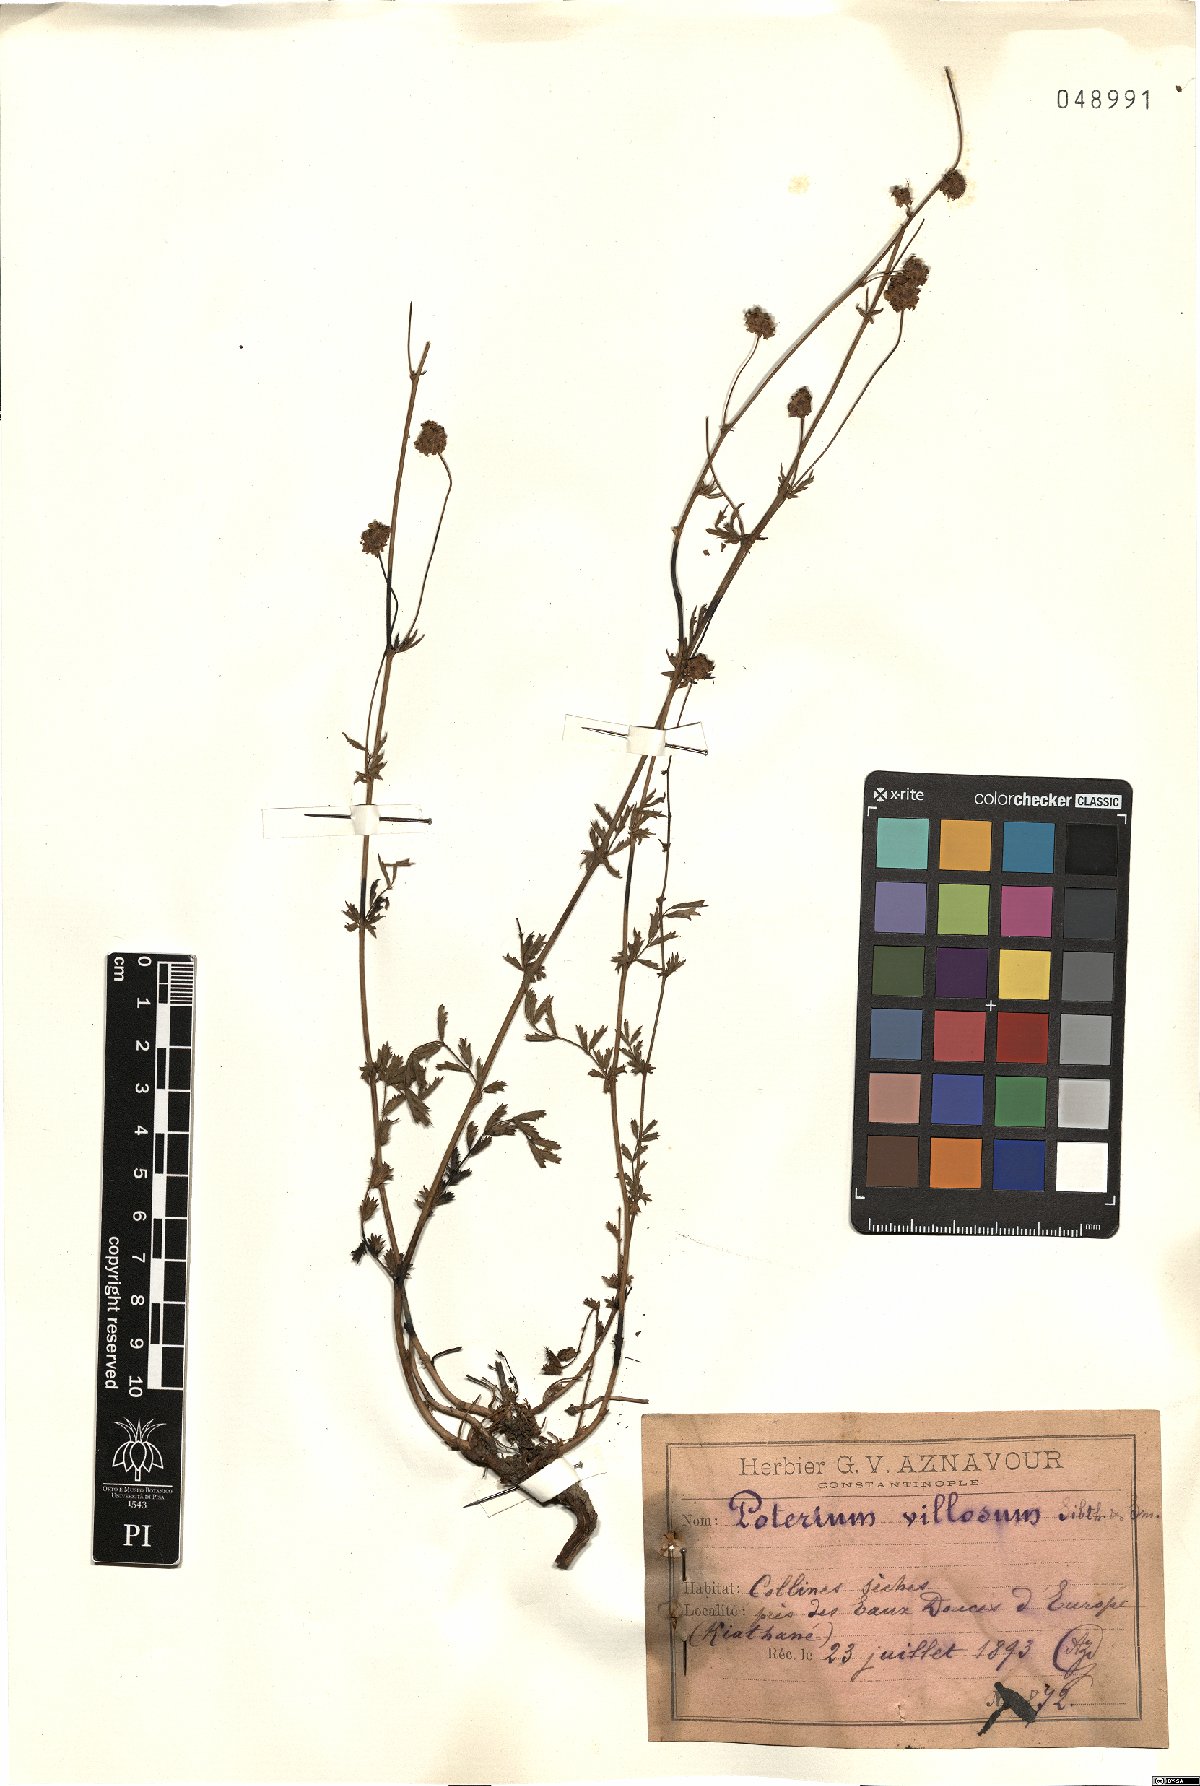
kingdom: Plantae
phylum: Tracheophyta
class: Magnoliopsida
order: Rosales
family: Rosaceae
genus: Poterium
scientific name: Poterium sanguisorba
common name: Salad burnet
